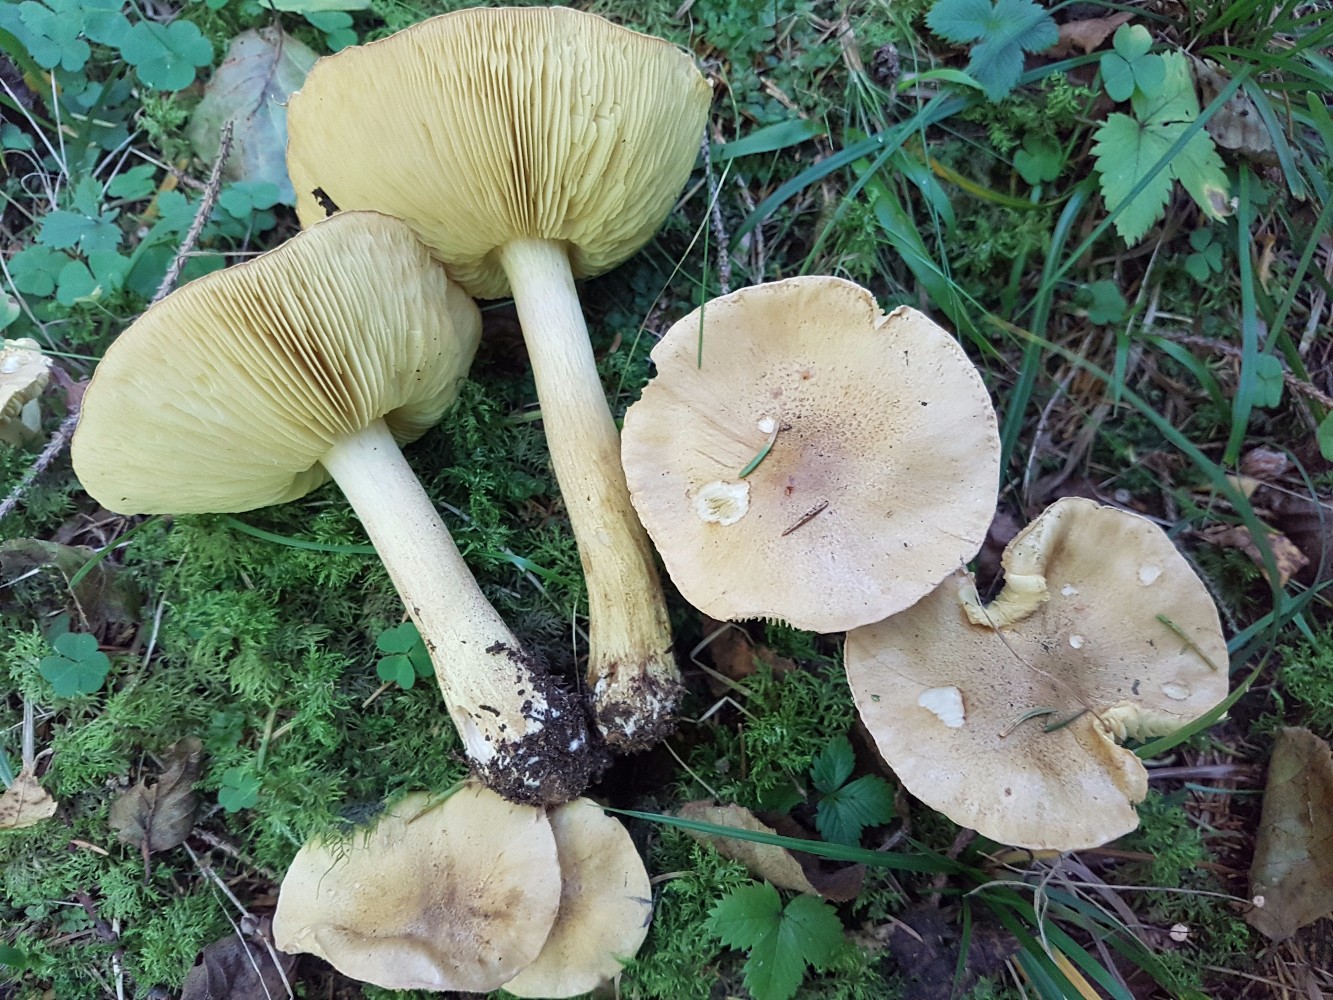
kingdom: Fungi
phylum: Basidiomycota
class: Agaricomycetes
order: Agaricales
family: Tricholomataceae
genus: Tricholoma
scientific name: Tricholoma aestuans
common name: kegle-ridderhat
